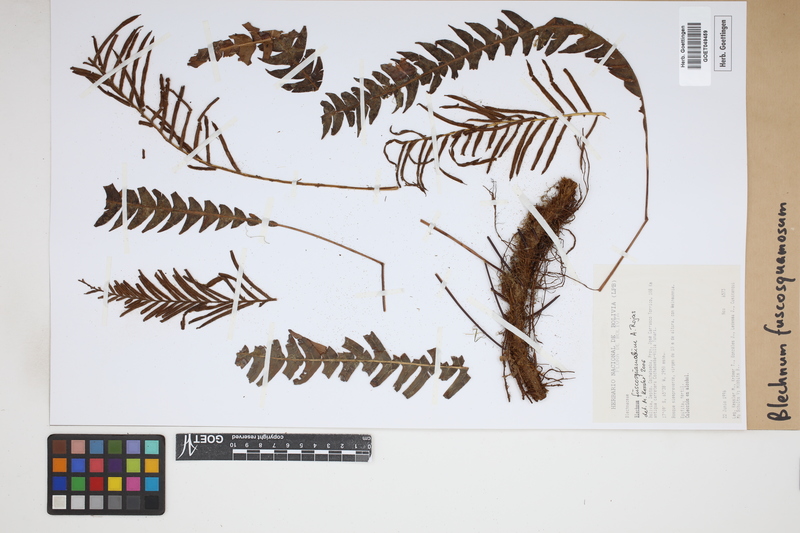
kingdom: Plantae
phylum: Tracheophyta
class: Polypodiopsida
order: Polypodiales
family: Blechnaceae
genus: Lomaridium
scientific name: Lomaridium fuscosquamosum
